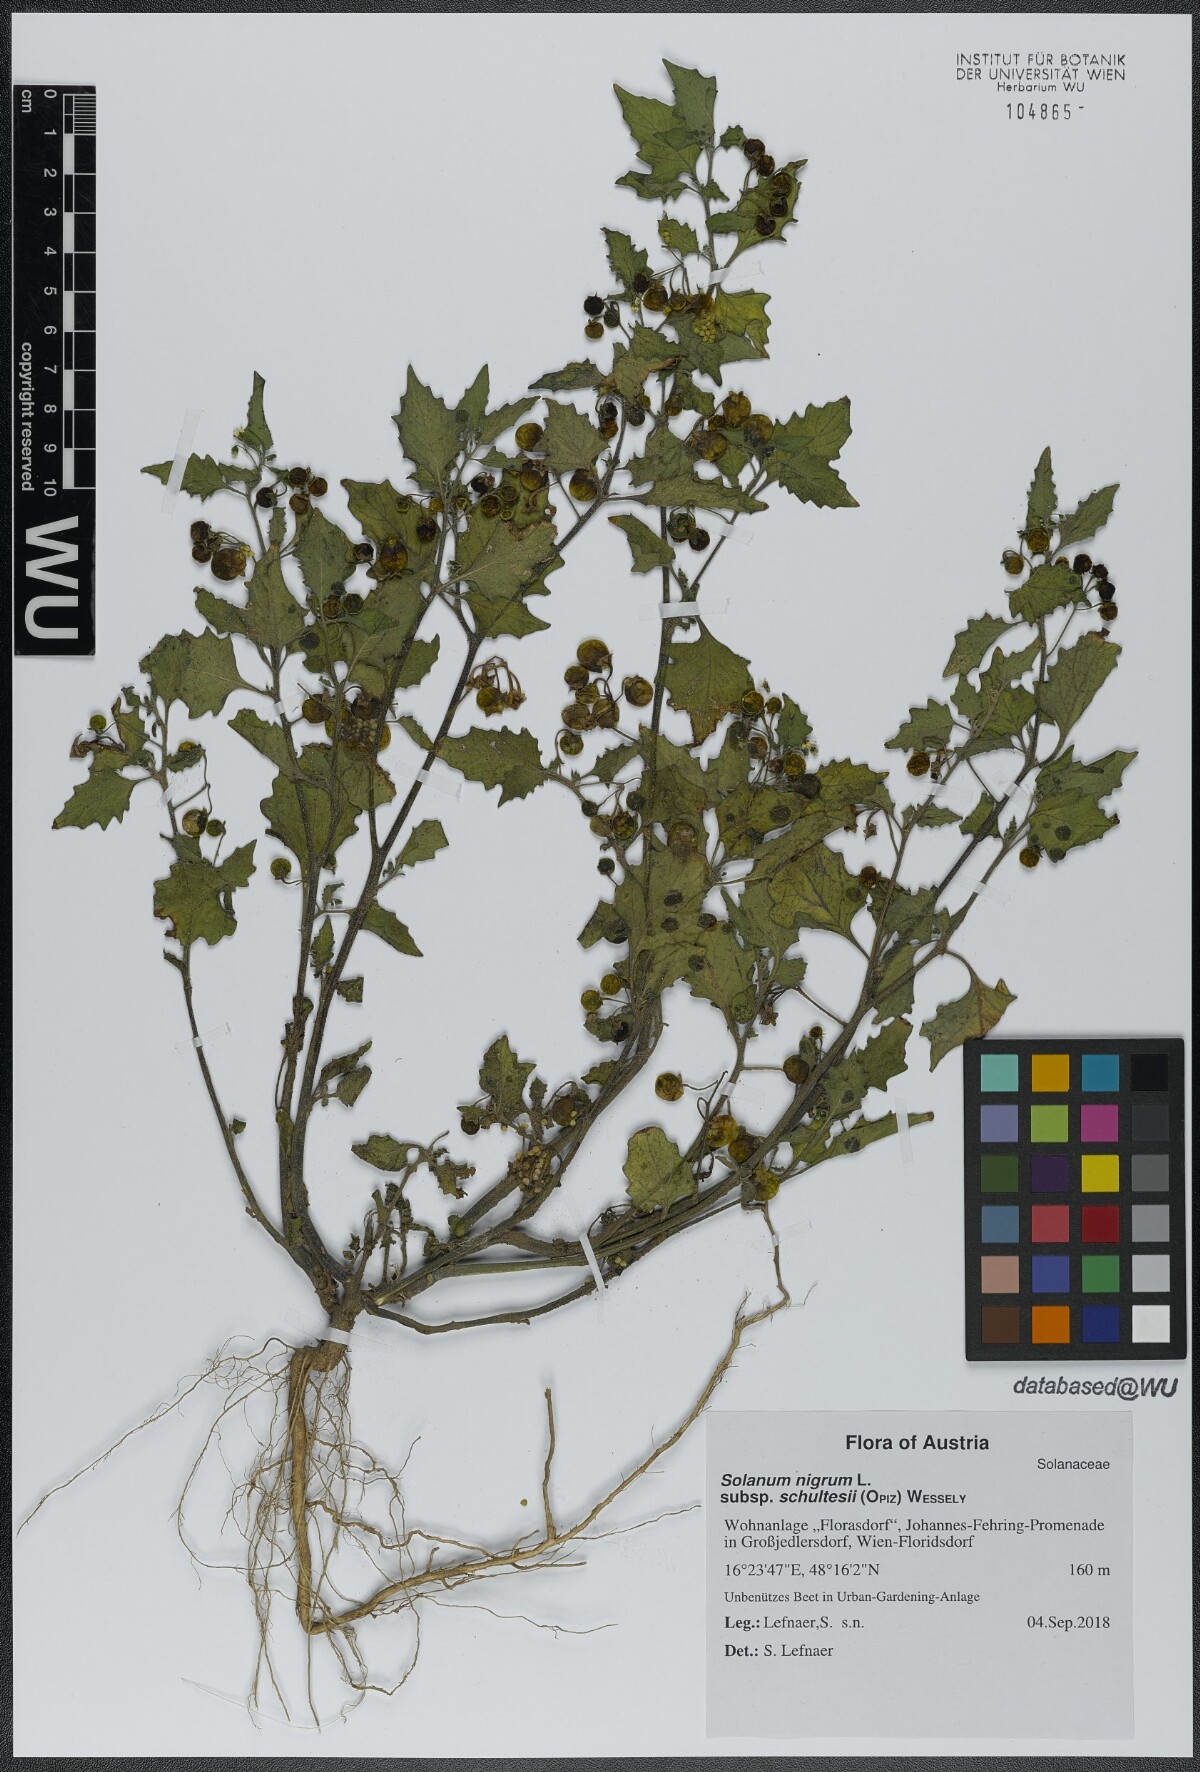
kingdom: Plantae
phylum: Tracheophyta
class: Magnoliopsida
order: Solanales
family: Solanaceae
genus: Solanum
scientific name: Solanum decipiens
